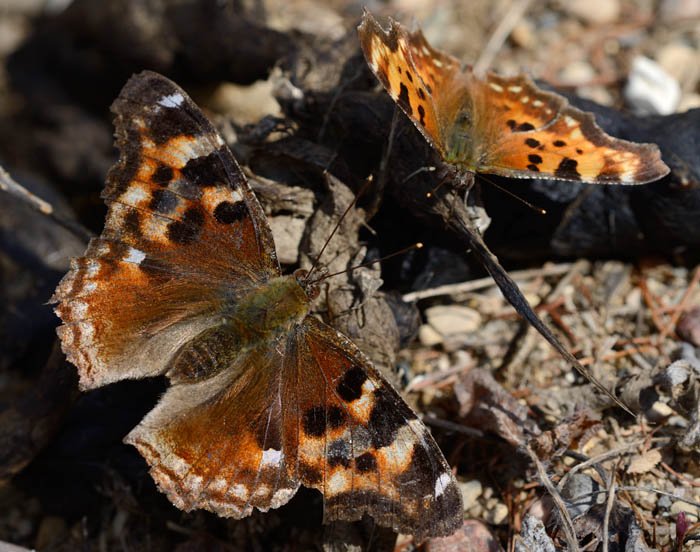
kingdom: Animalia
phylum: Arthropoda
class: Insecta
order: Lepidoptera
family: Nymphalidae
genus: Polygonia
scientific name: Polygonia vaualbum
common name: Compton Tortoiseshell
